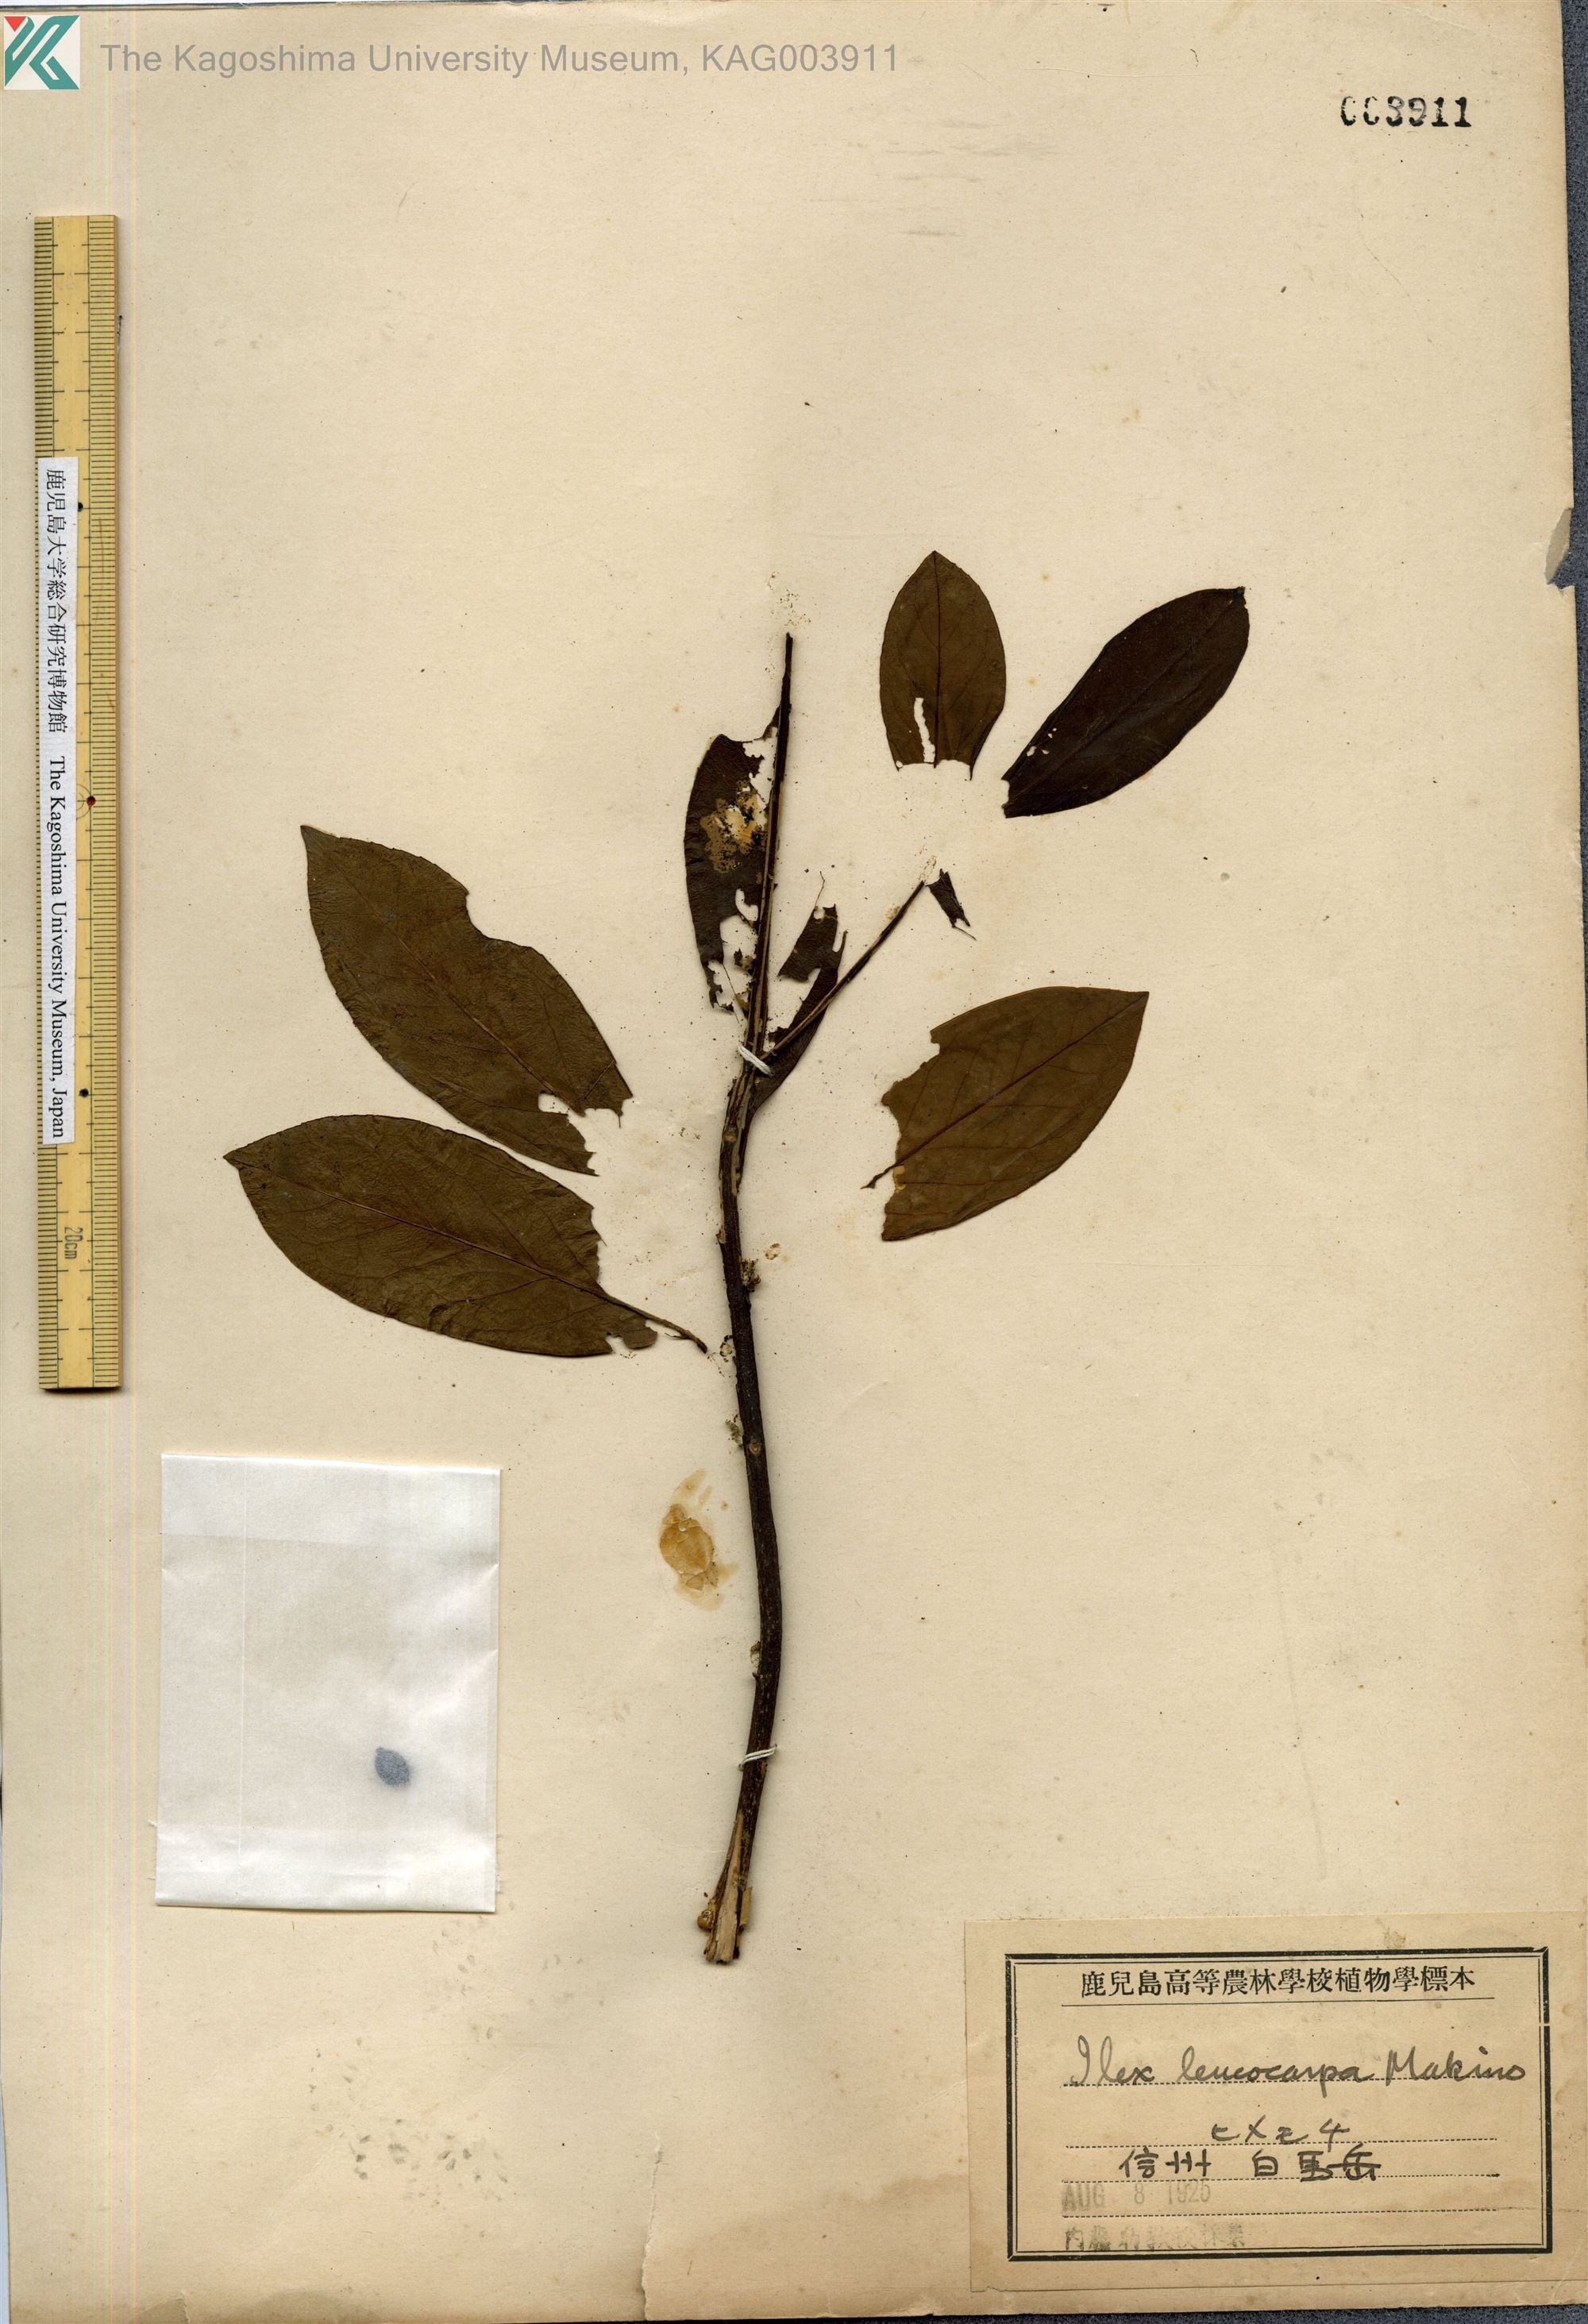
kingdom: Plantae
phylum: Tracheophyta
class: Magnoliopsida
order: Aquifoliales
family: Aquifoliaceae
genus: Ilex
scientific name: Ilex leucoclada
